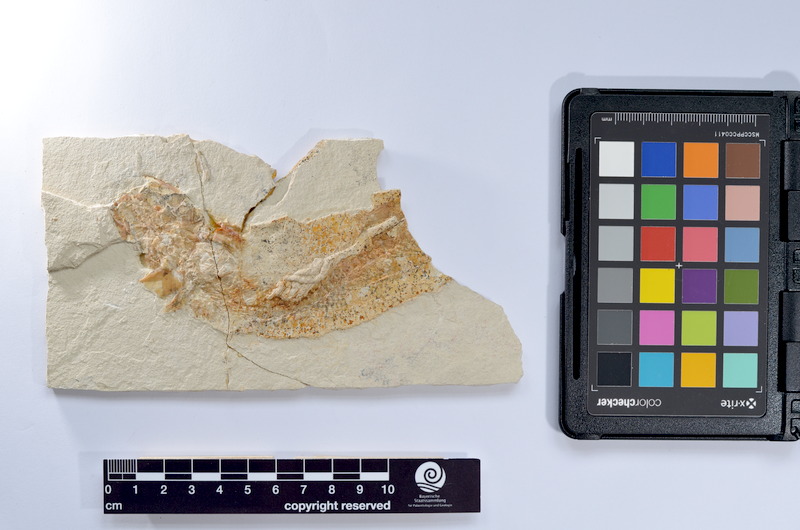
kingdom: Animalia
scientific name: Animalia
